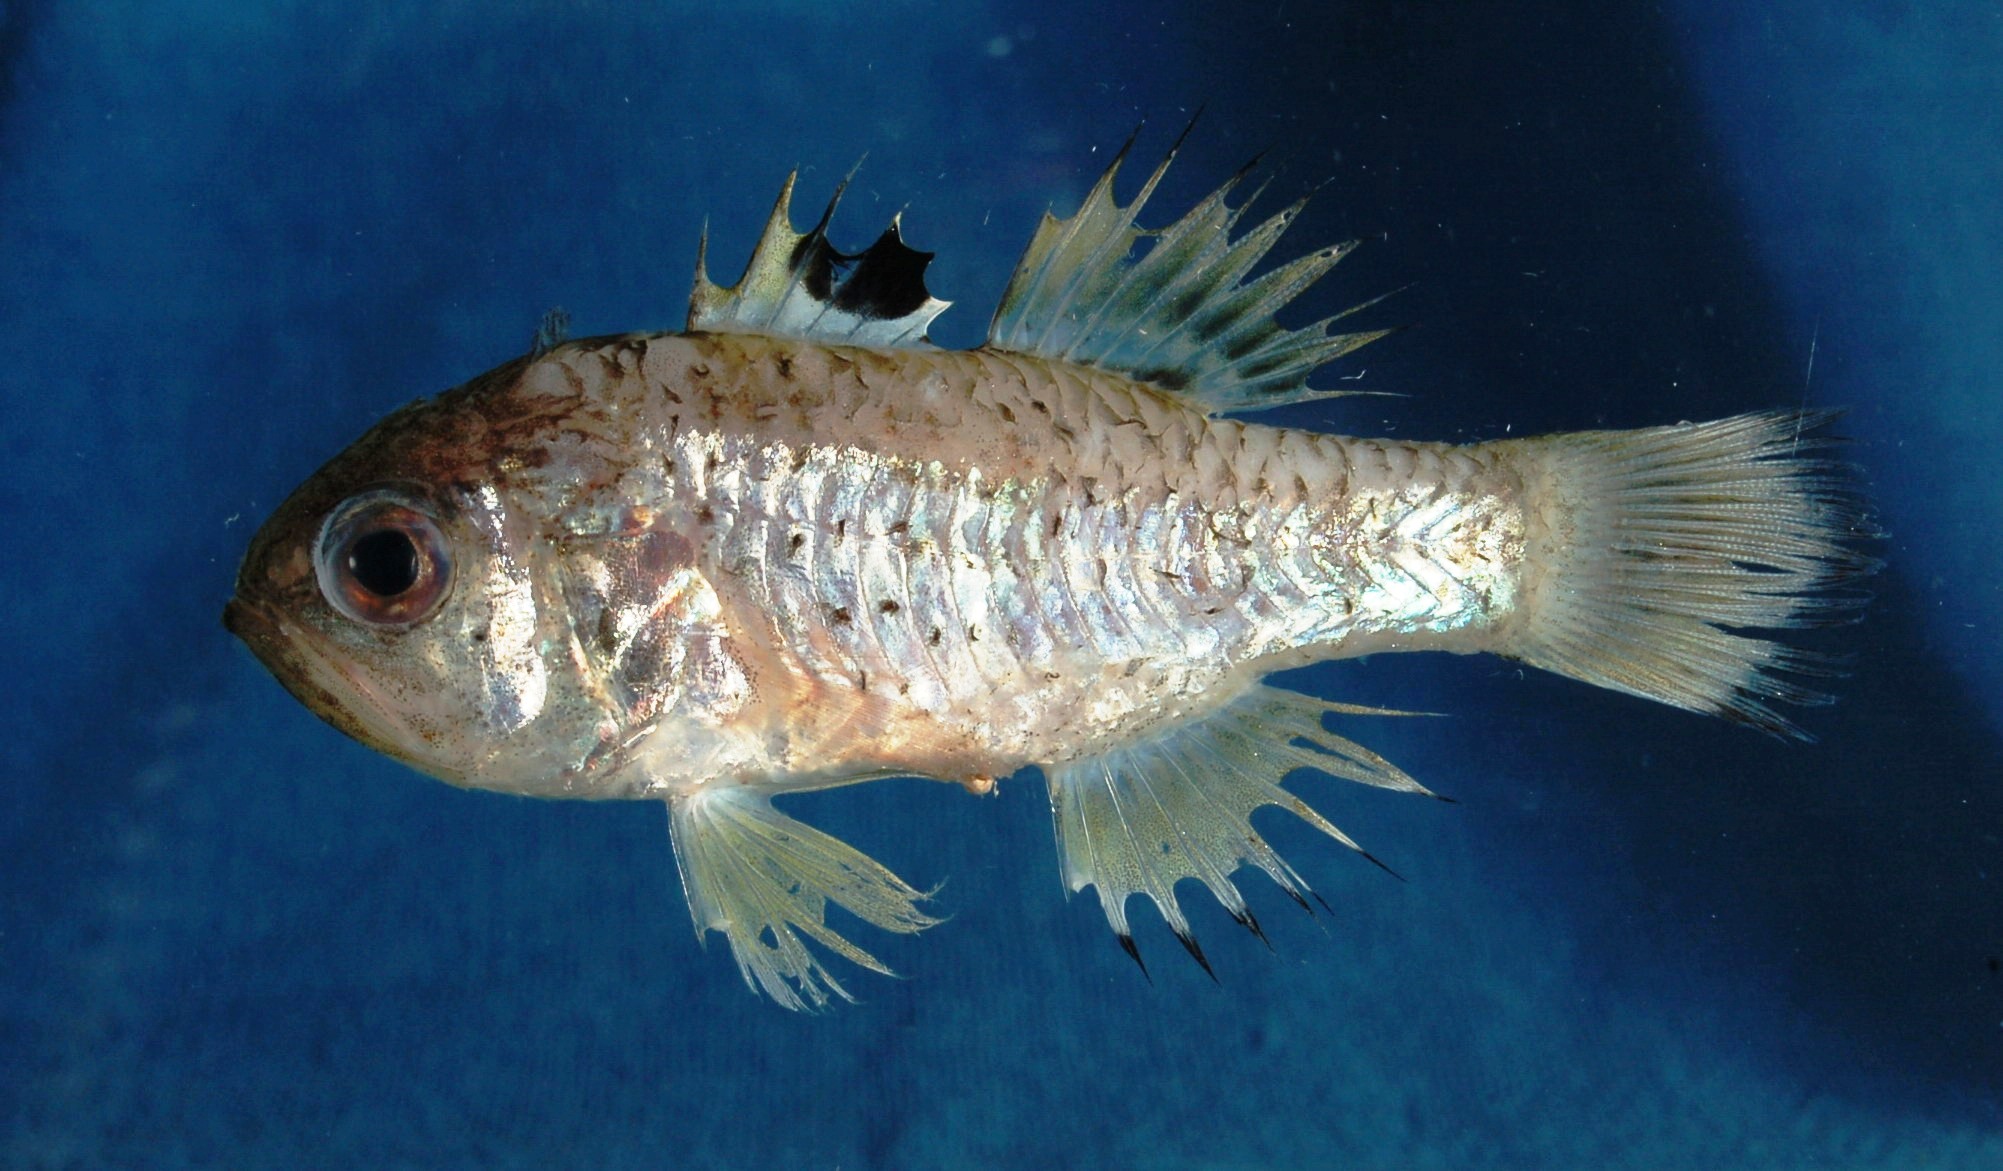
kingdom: Animalia
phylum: Chordata
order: Perciformes
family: Apogonidae
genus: Jaydia
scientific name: Jaydia queketti
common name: Spotfin cardinal
